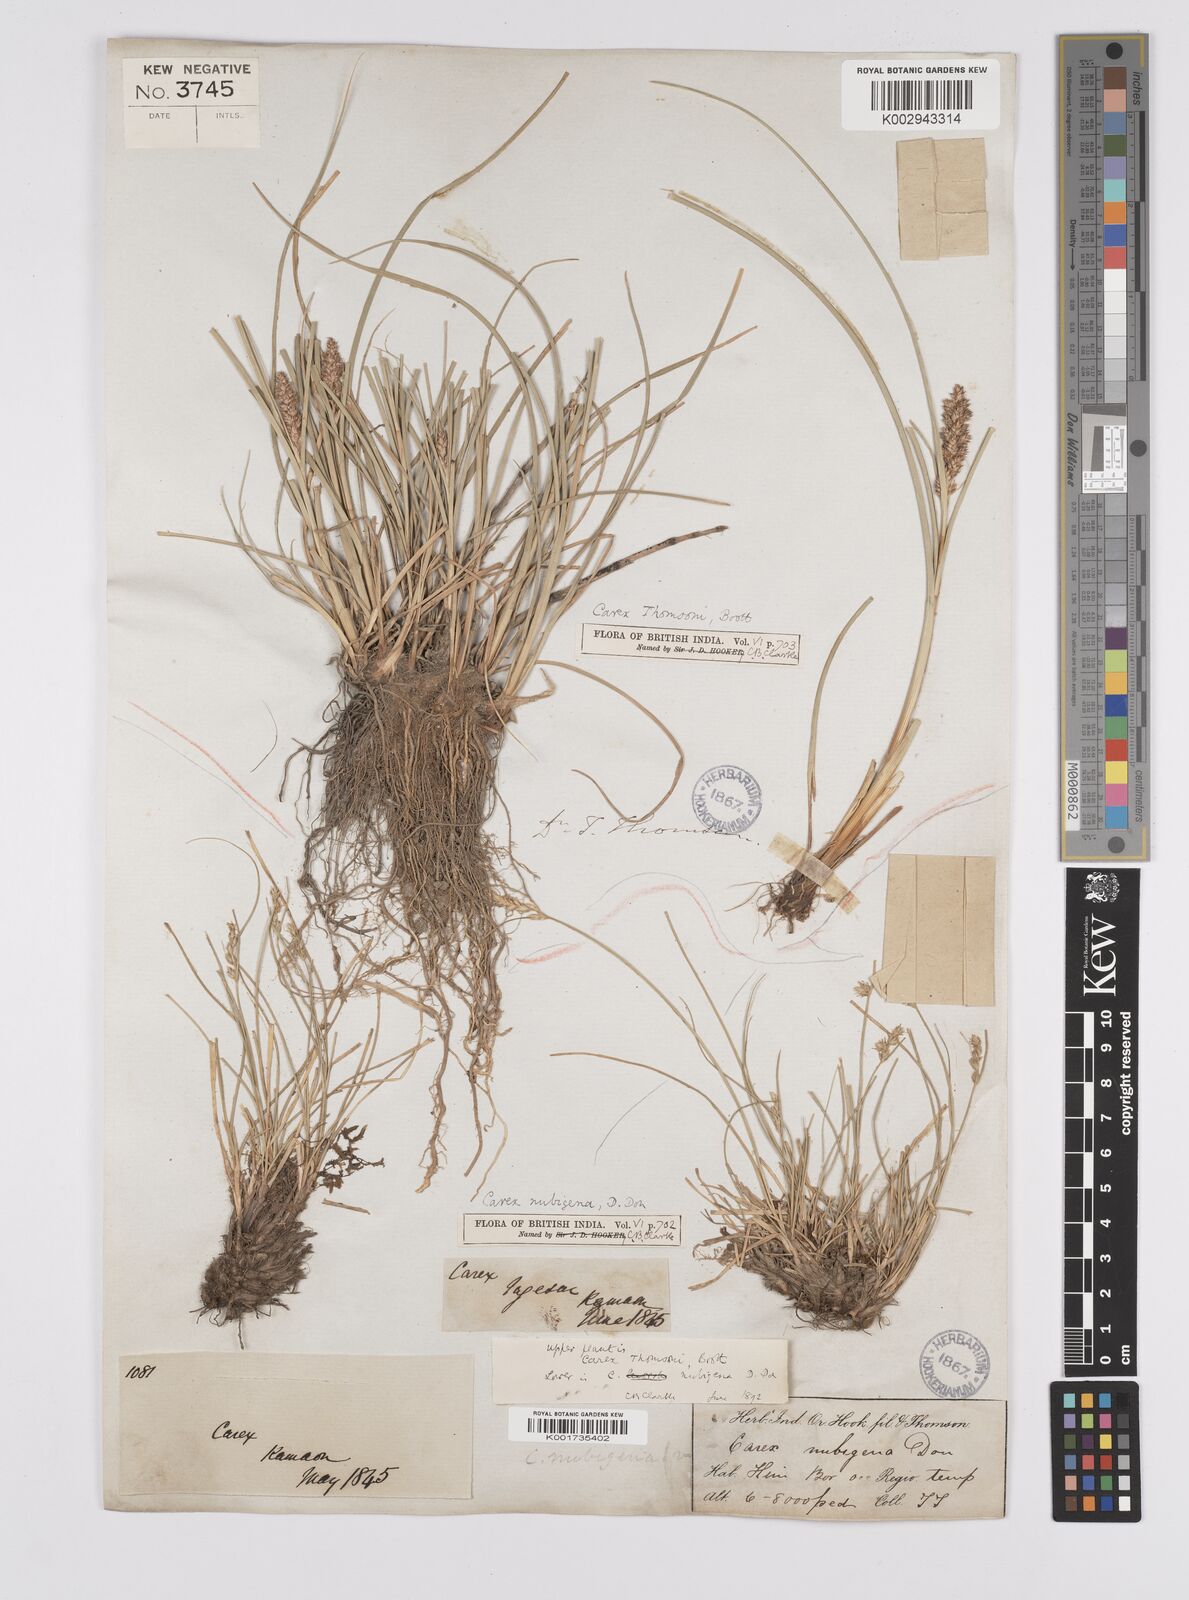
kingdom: Plantae
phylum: Tracheophyta
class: Liliopsida
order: Poales
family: Cyperaceae
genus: Carex
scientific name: Carex thomsonii
